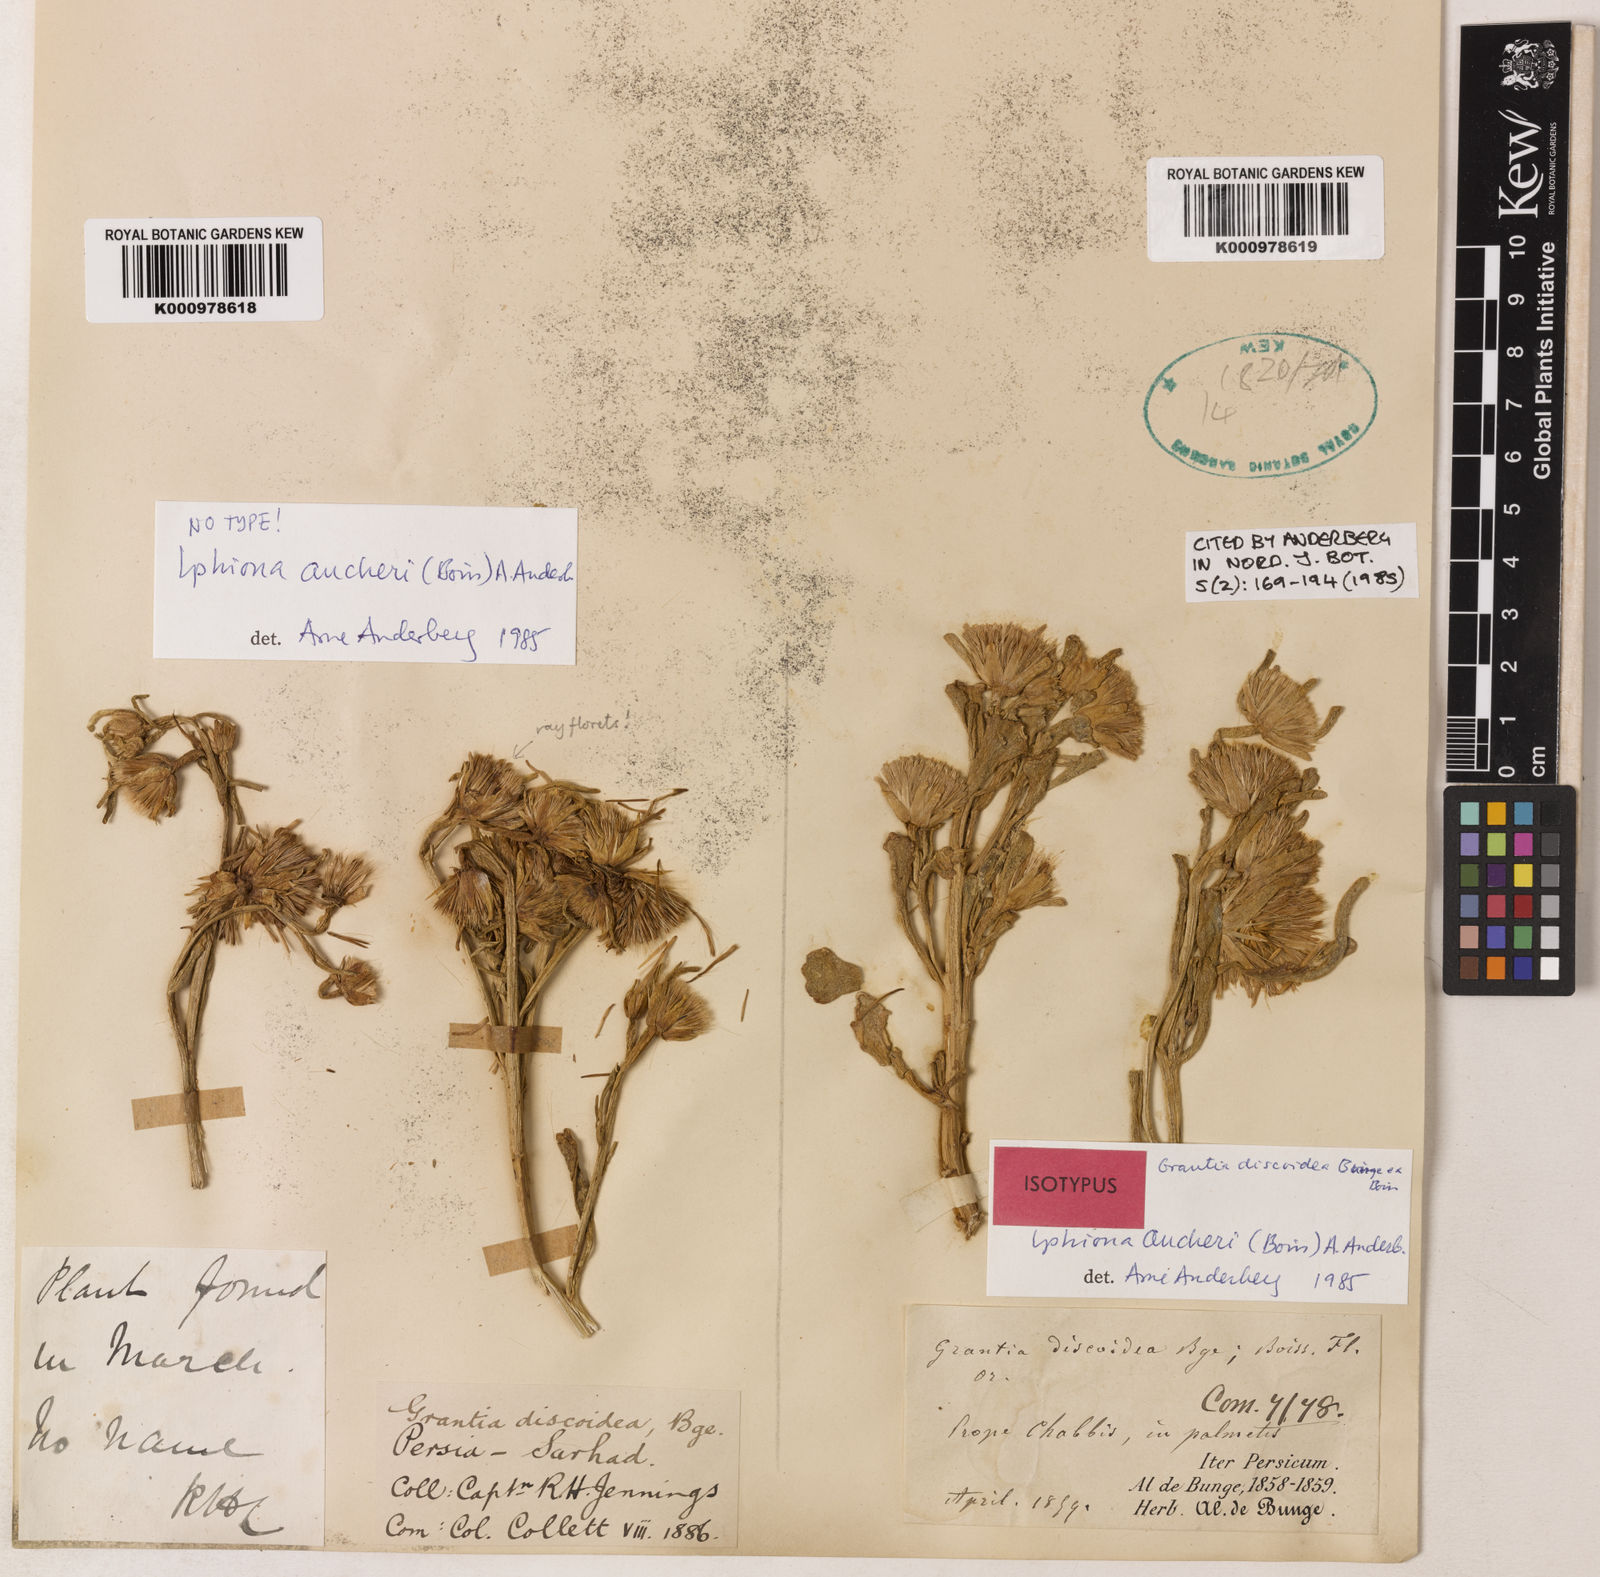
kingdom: Plantae
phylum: Tracheophyta
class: Magnoliopsida
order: Asterales
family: Asteraceae
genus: Iphiona
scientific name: Iphiona aucheri
